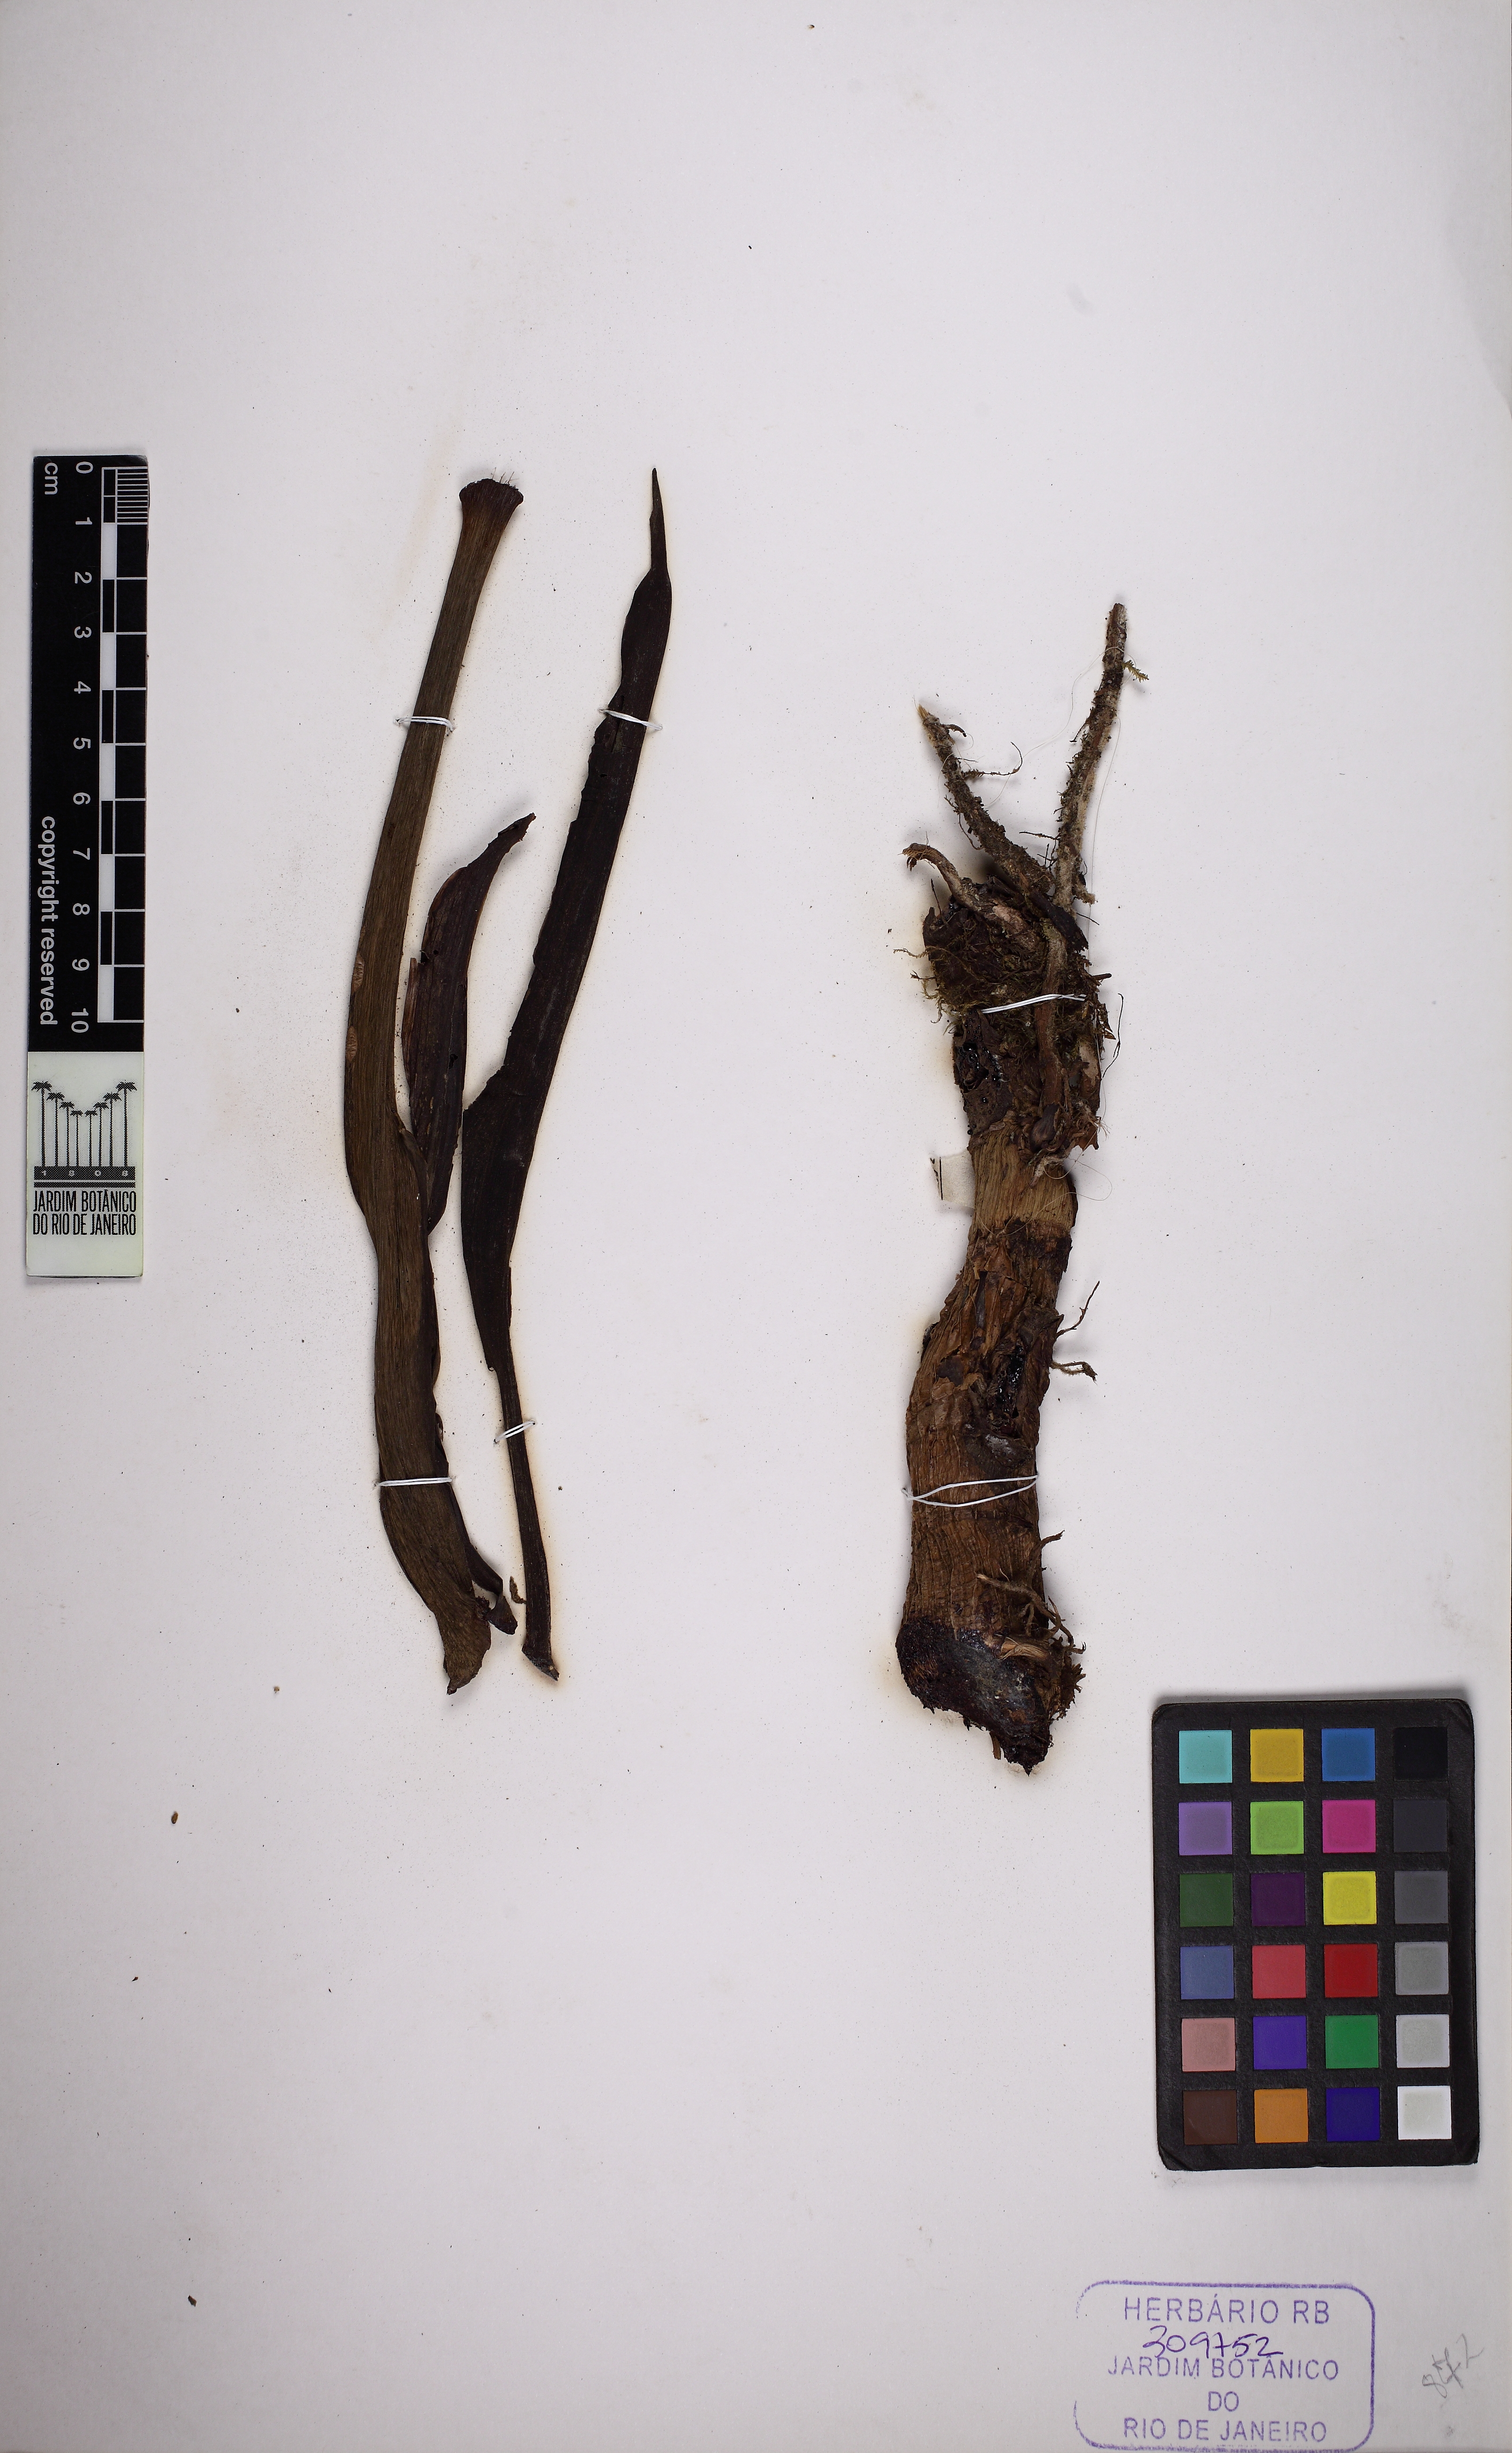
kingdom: Plantae
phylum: Tracheophyta
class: Liliopsida
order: Alismatales
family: Araceae
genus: Philodendron
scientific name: Philodendron eximium
